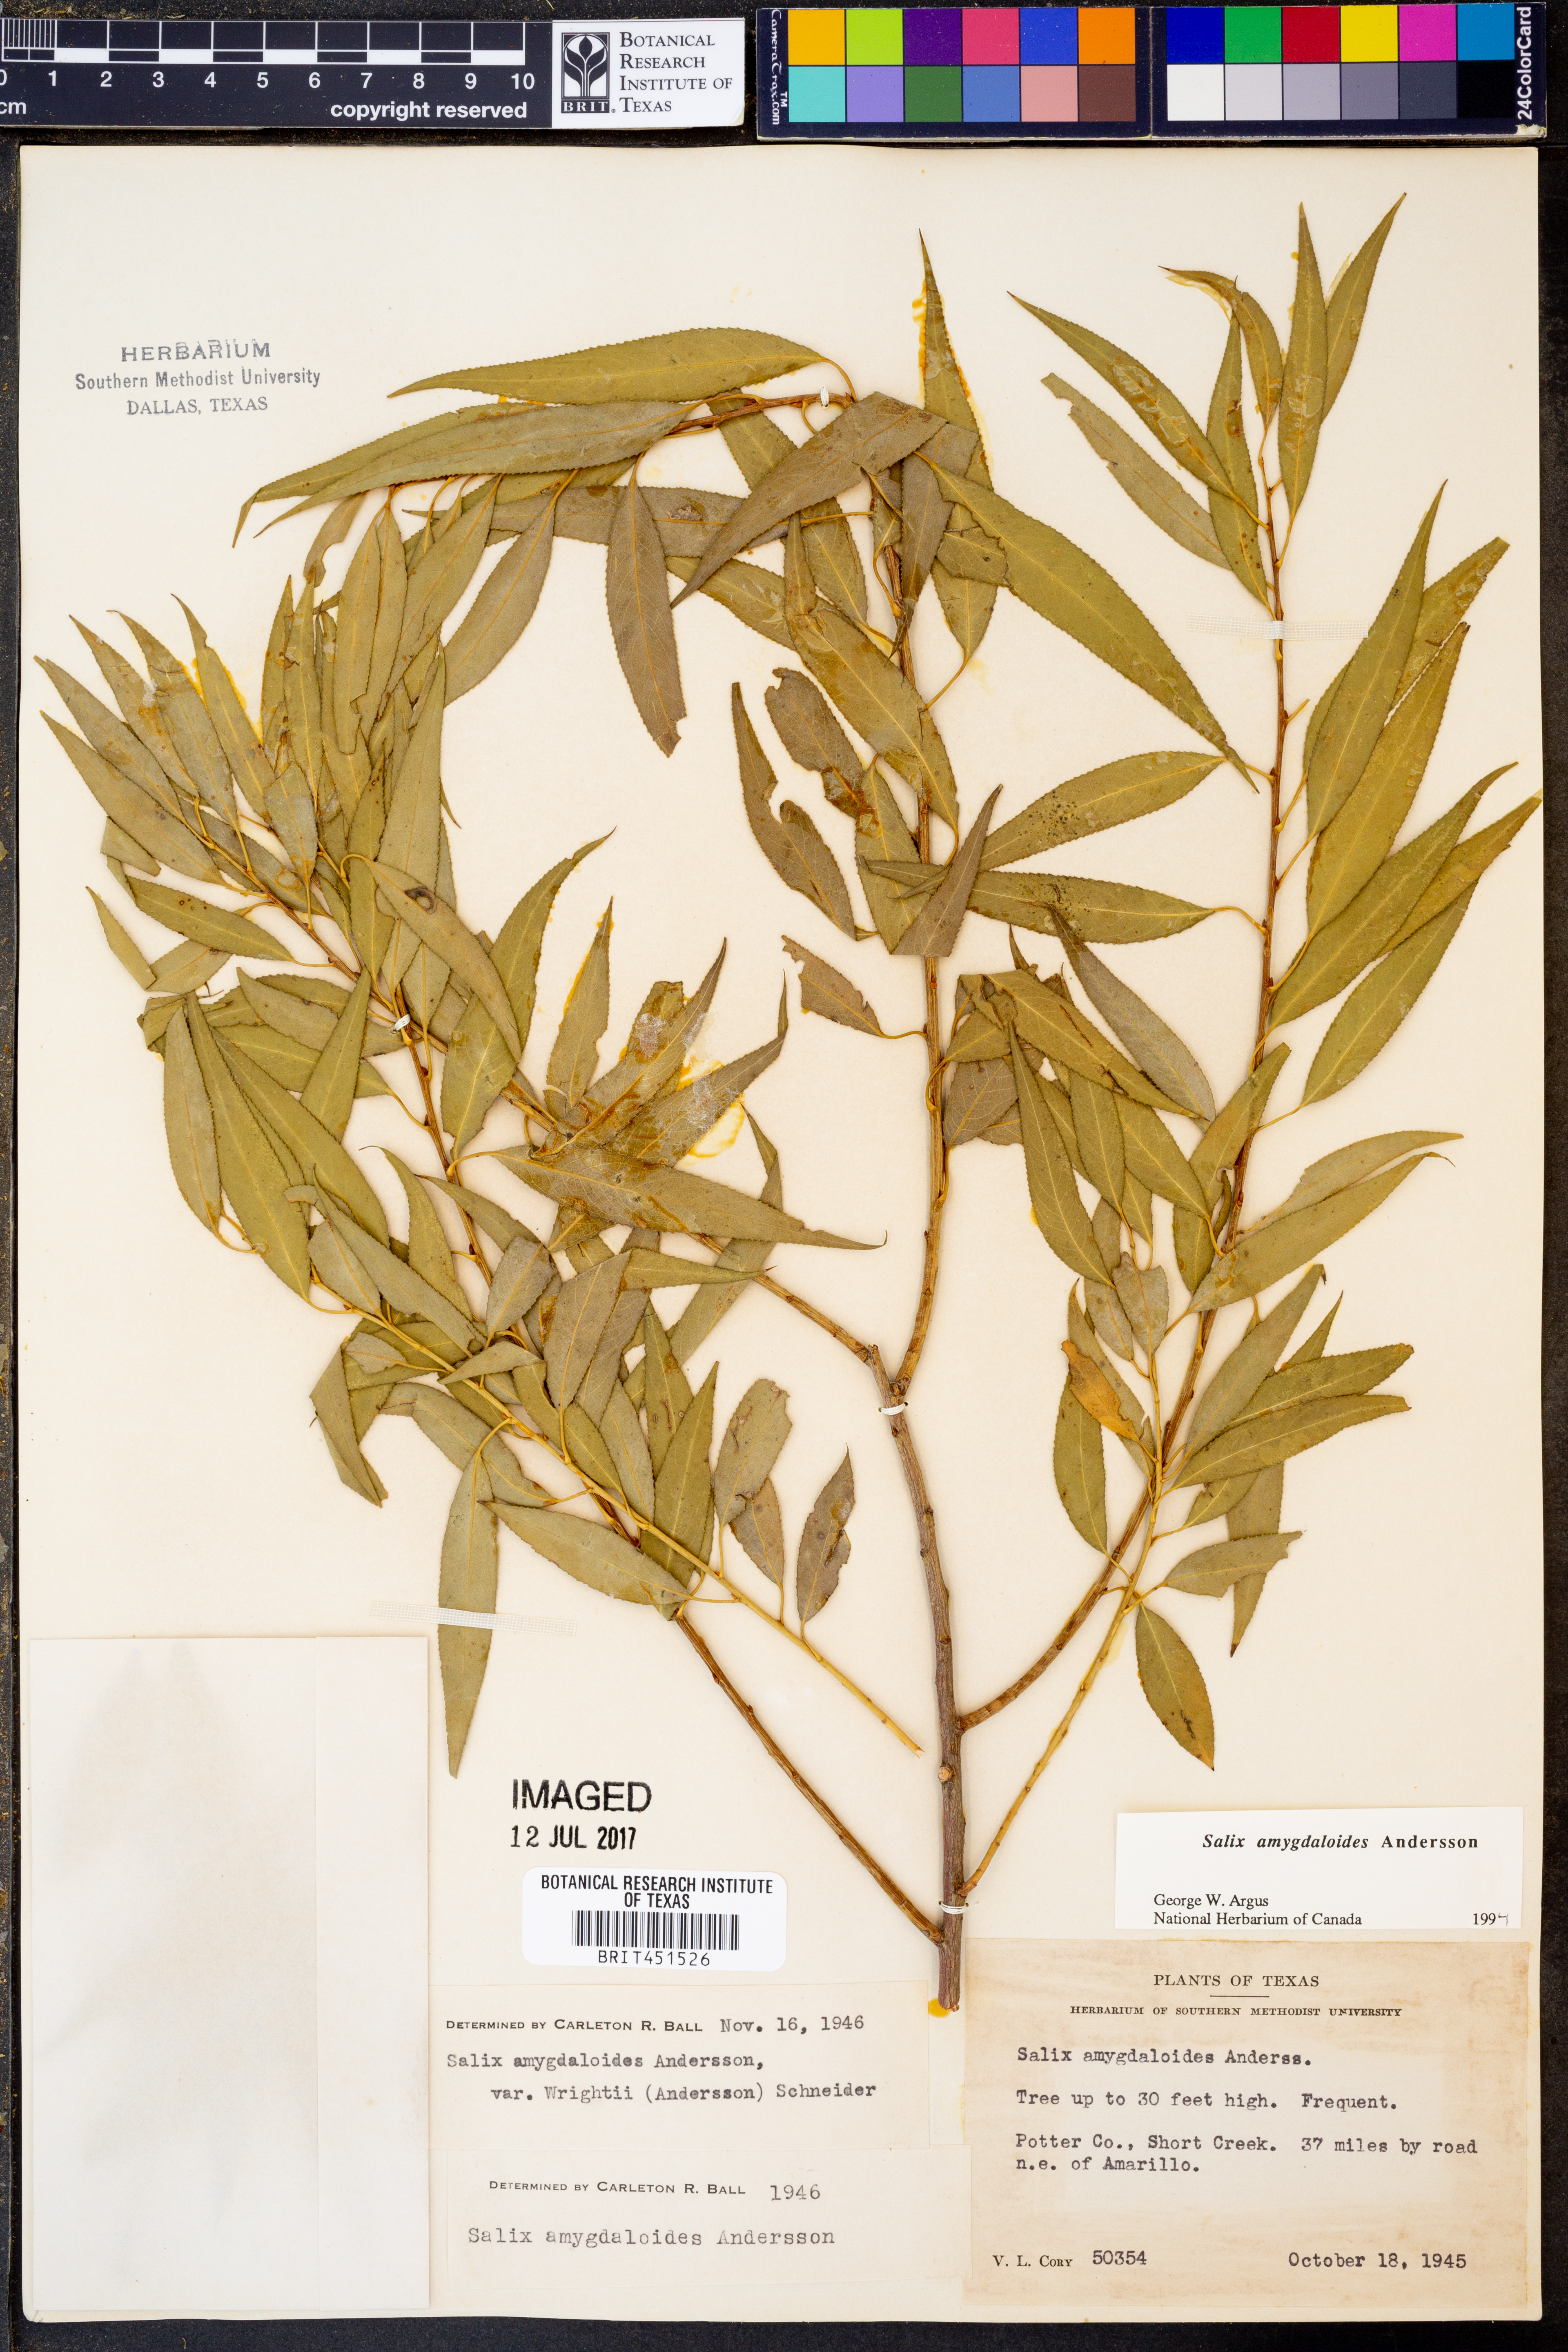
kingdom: Plantae
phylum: Tracheophyta
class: Magnoliopsida
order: Malpighiales
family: Salicaceae
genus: Salix
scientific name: Salix amygdaloides
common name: Peach leaf willow
